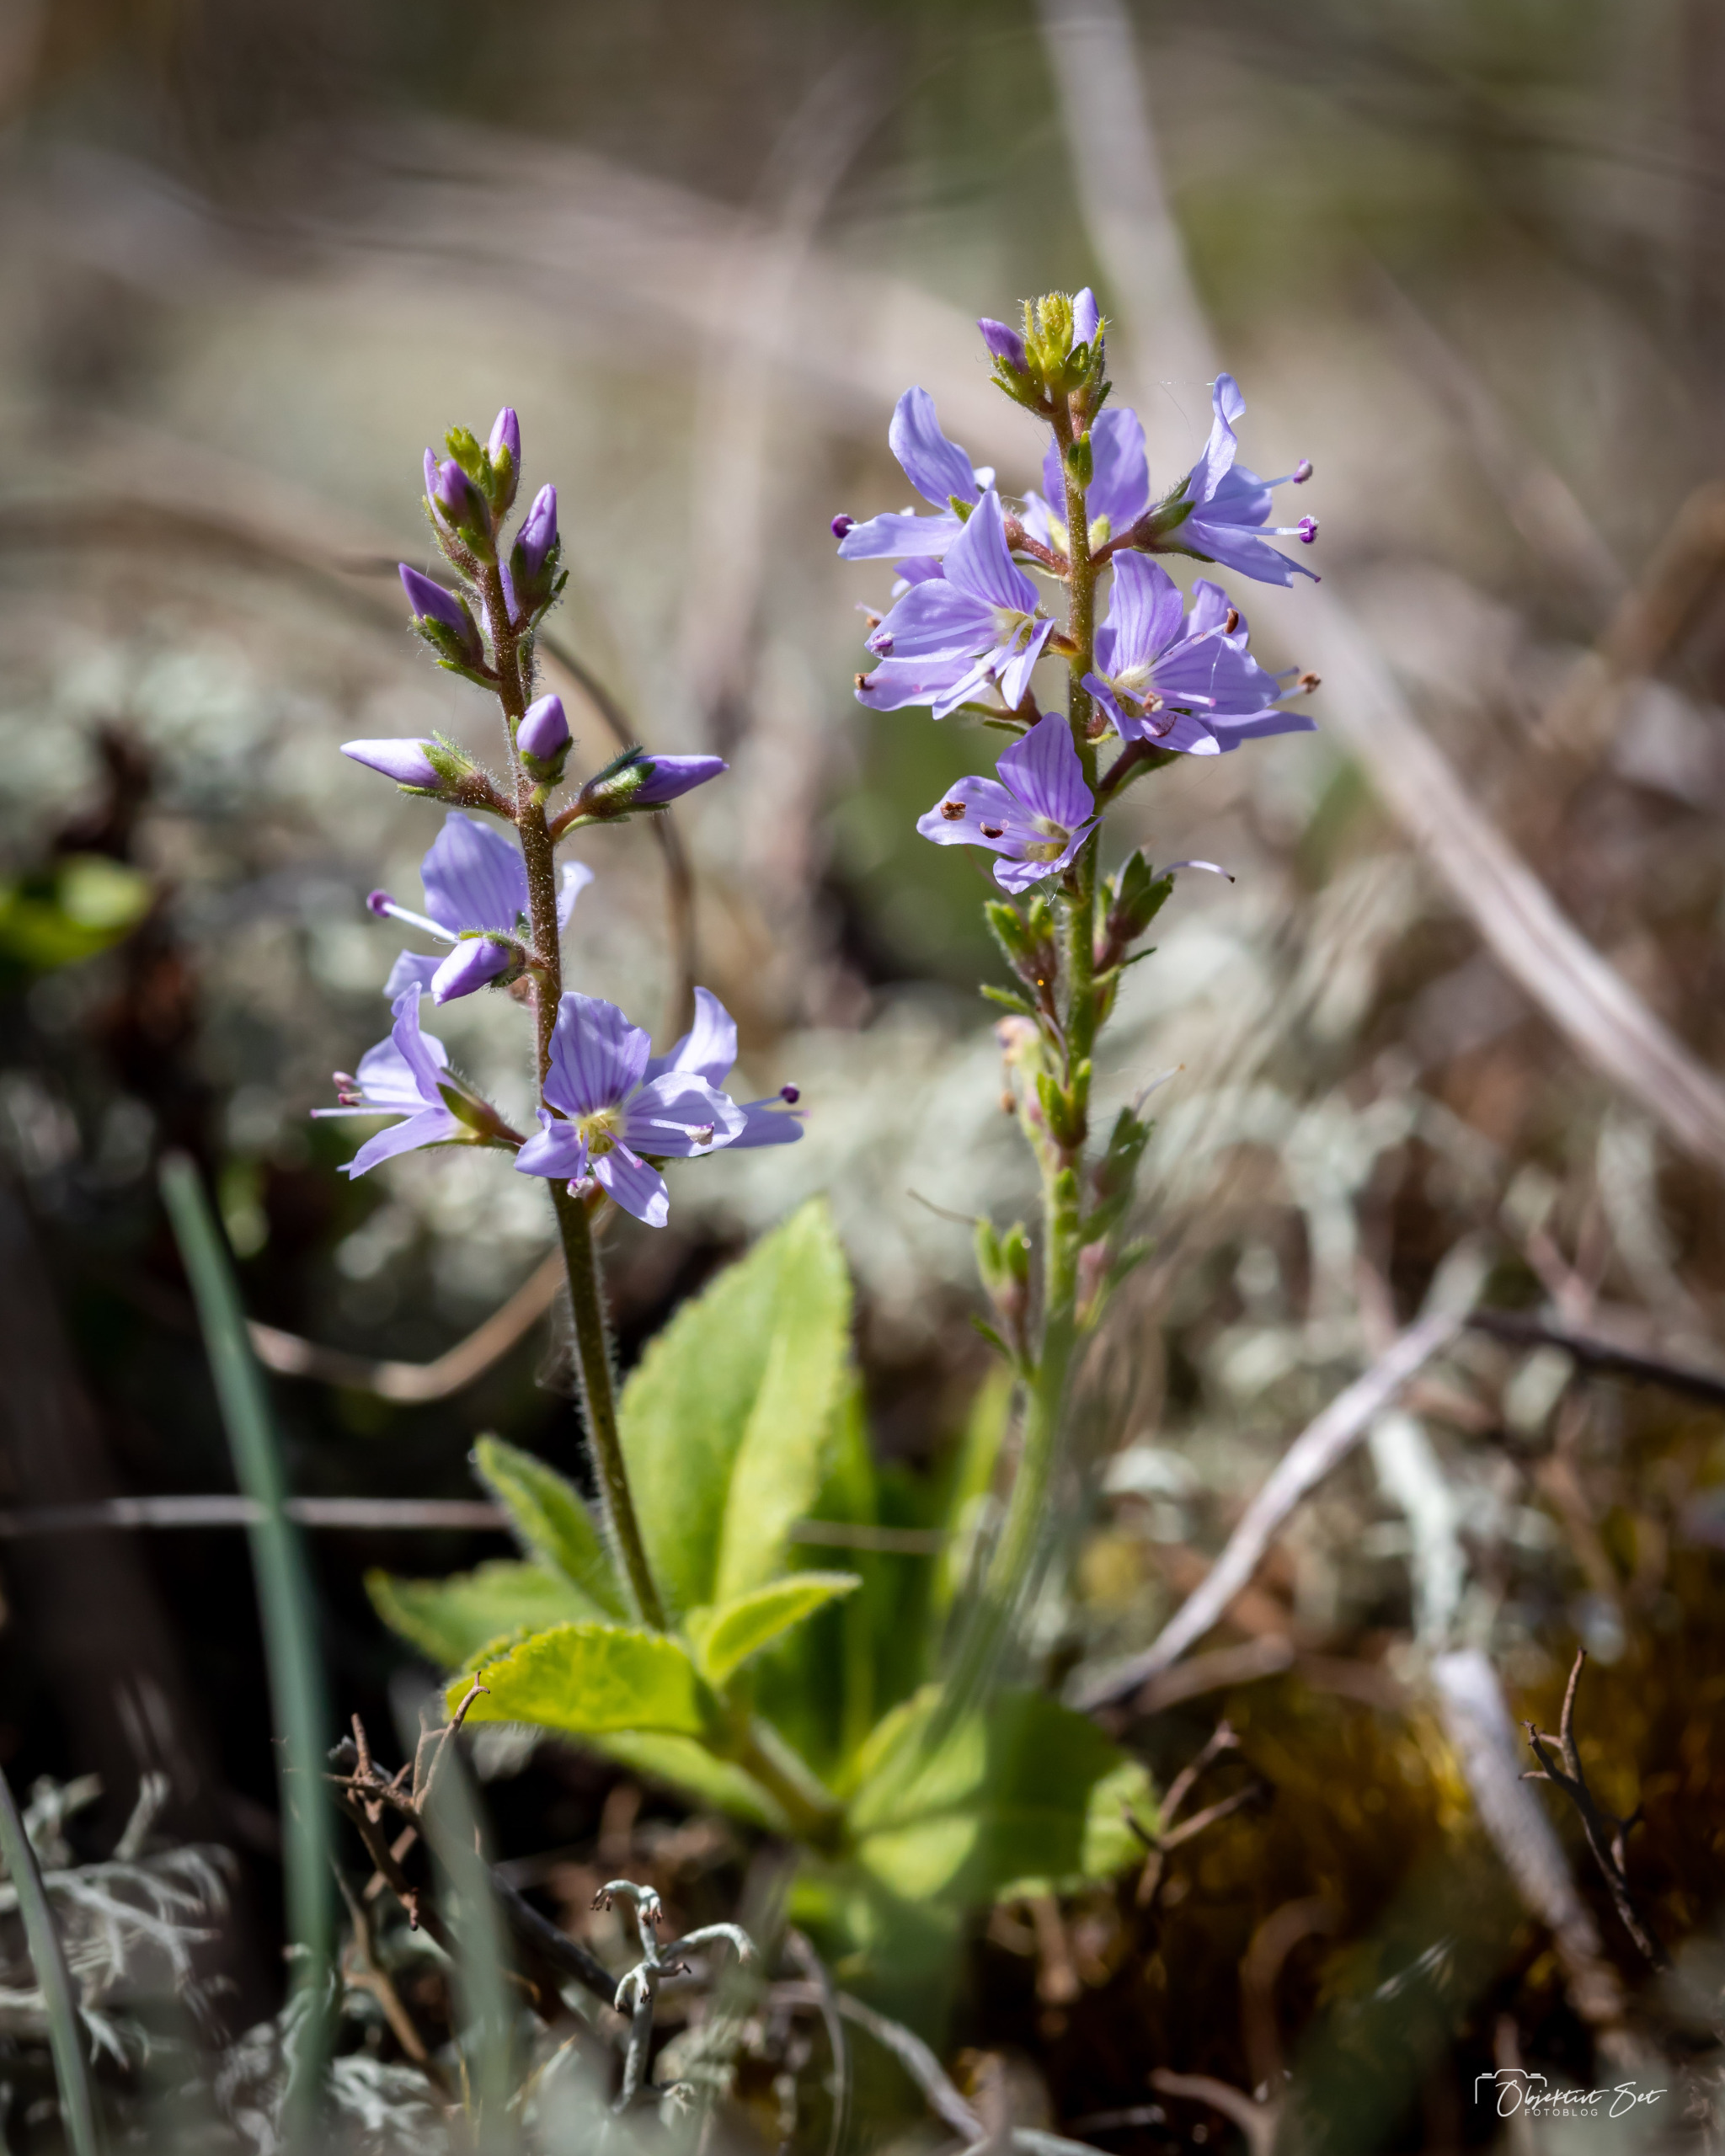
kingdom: Plantae
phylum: Tracheophyta
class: Magnoliopsida
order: Lamiales
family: Plantaginaceae
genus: Veronica
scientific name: Veronica officinalis
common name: Læge-ærenpris
